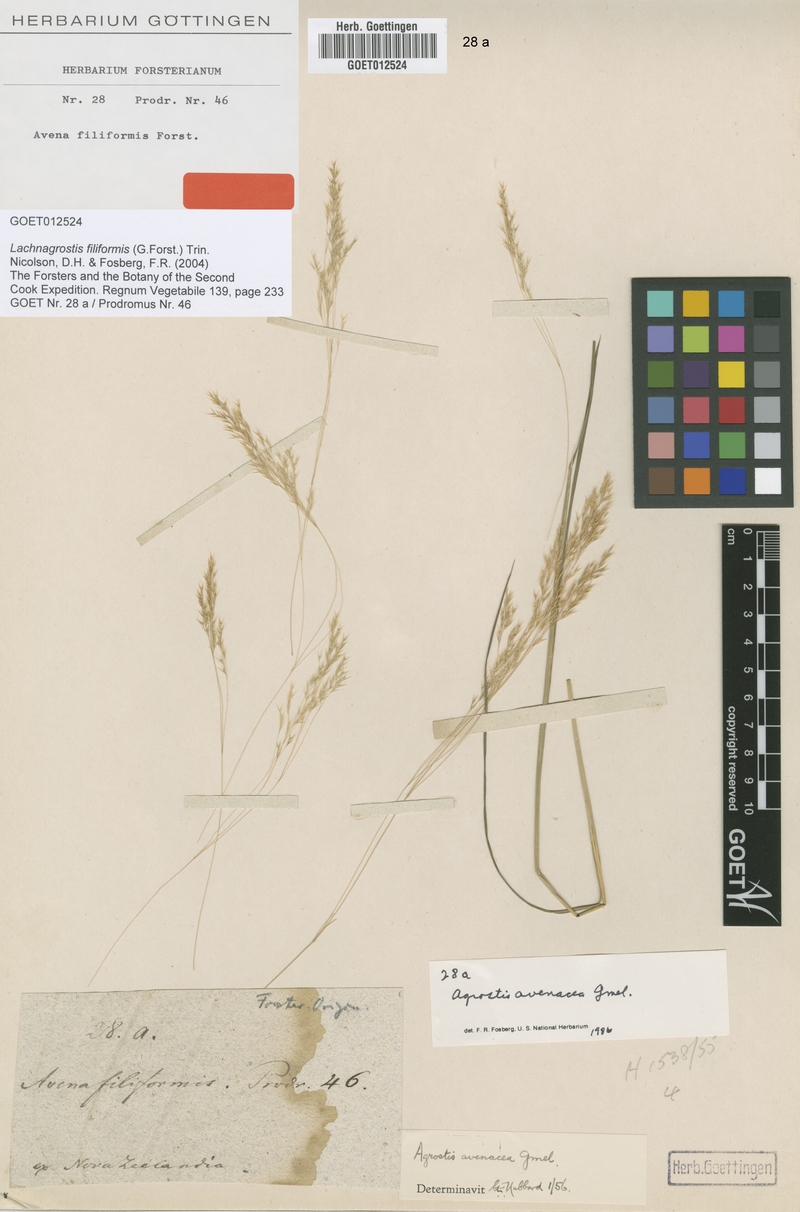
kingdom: Plantae
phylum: Tracheophyta
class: Liliopsida
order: Poales
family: Poaceae
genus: Lachnagrostis
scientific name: Lachnagrostis filiformis
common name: Bentgrass
